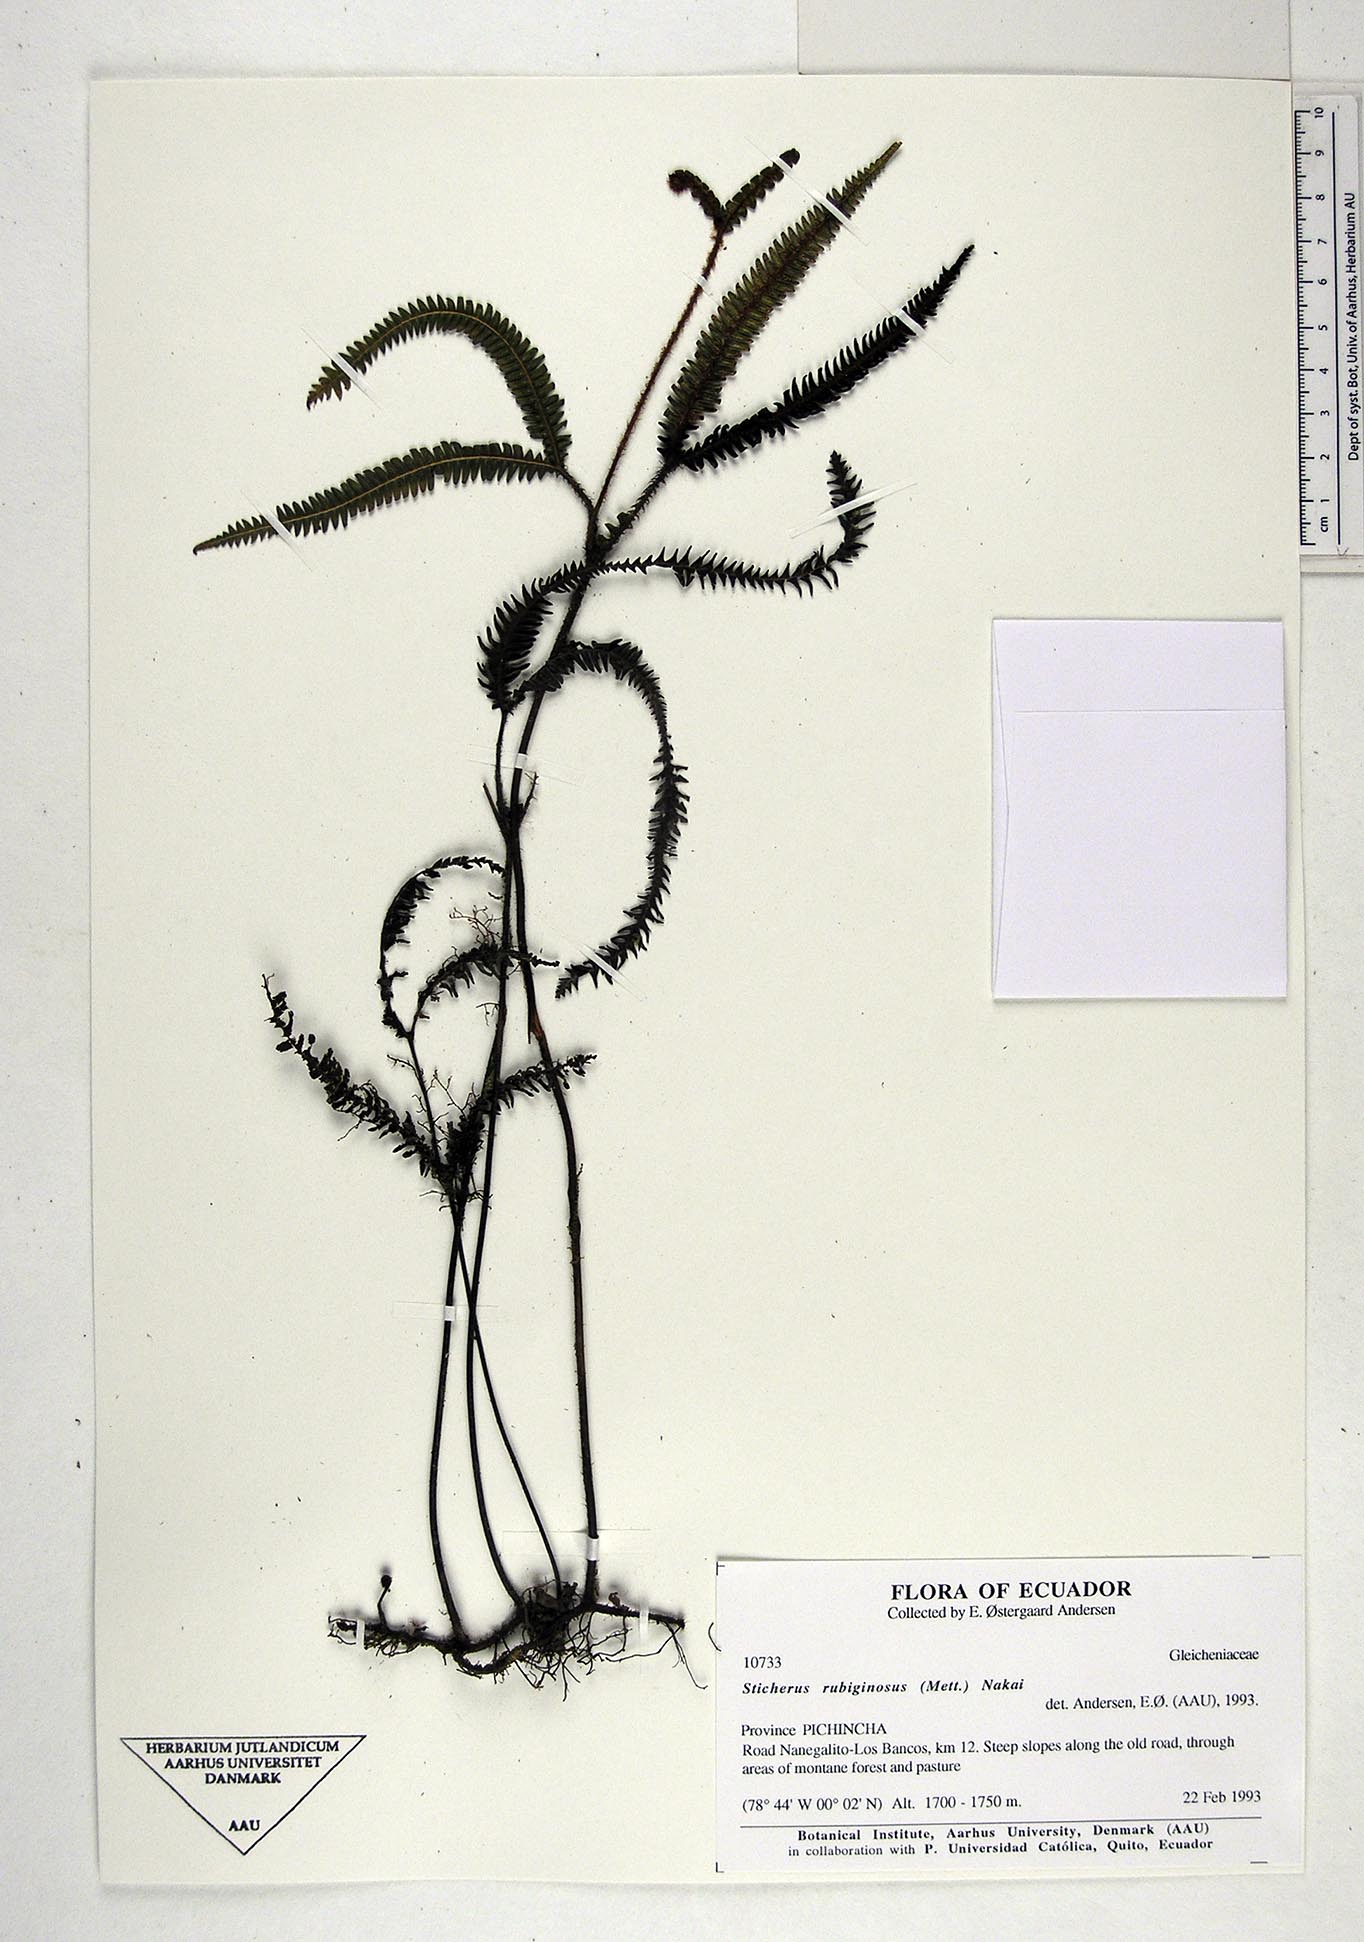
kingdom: Plantae
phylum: Tracheophyta
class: Polypodiopsida
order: Gleicheniales
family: Gleicheniaceae
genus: Sticherus
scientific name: Sticherus rubiginosus
